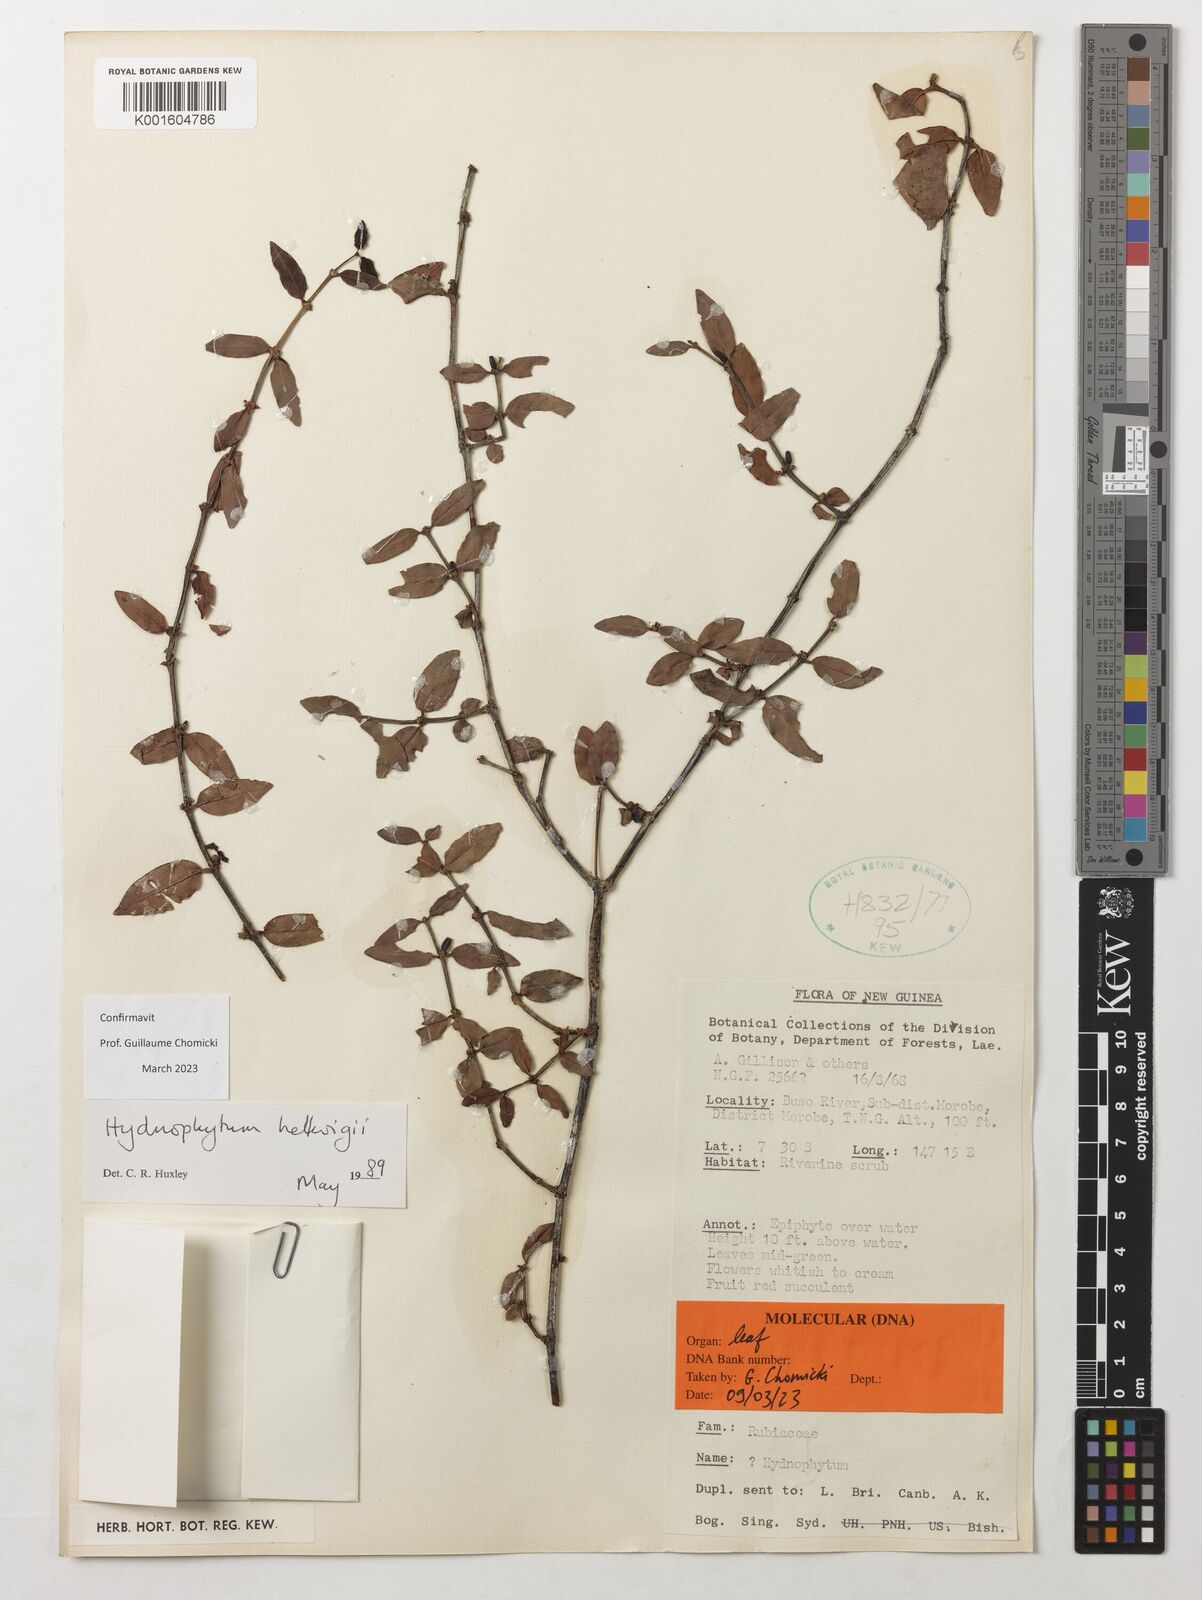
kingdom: Plantae
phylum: Tracheophyta
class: Magnoliopsida
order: Gentianales
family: Rubiaceae
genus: Hydnophytum
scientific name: Hydnophytum hellwigii
